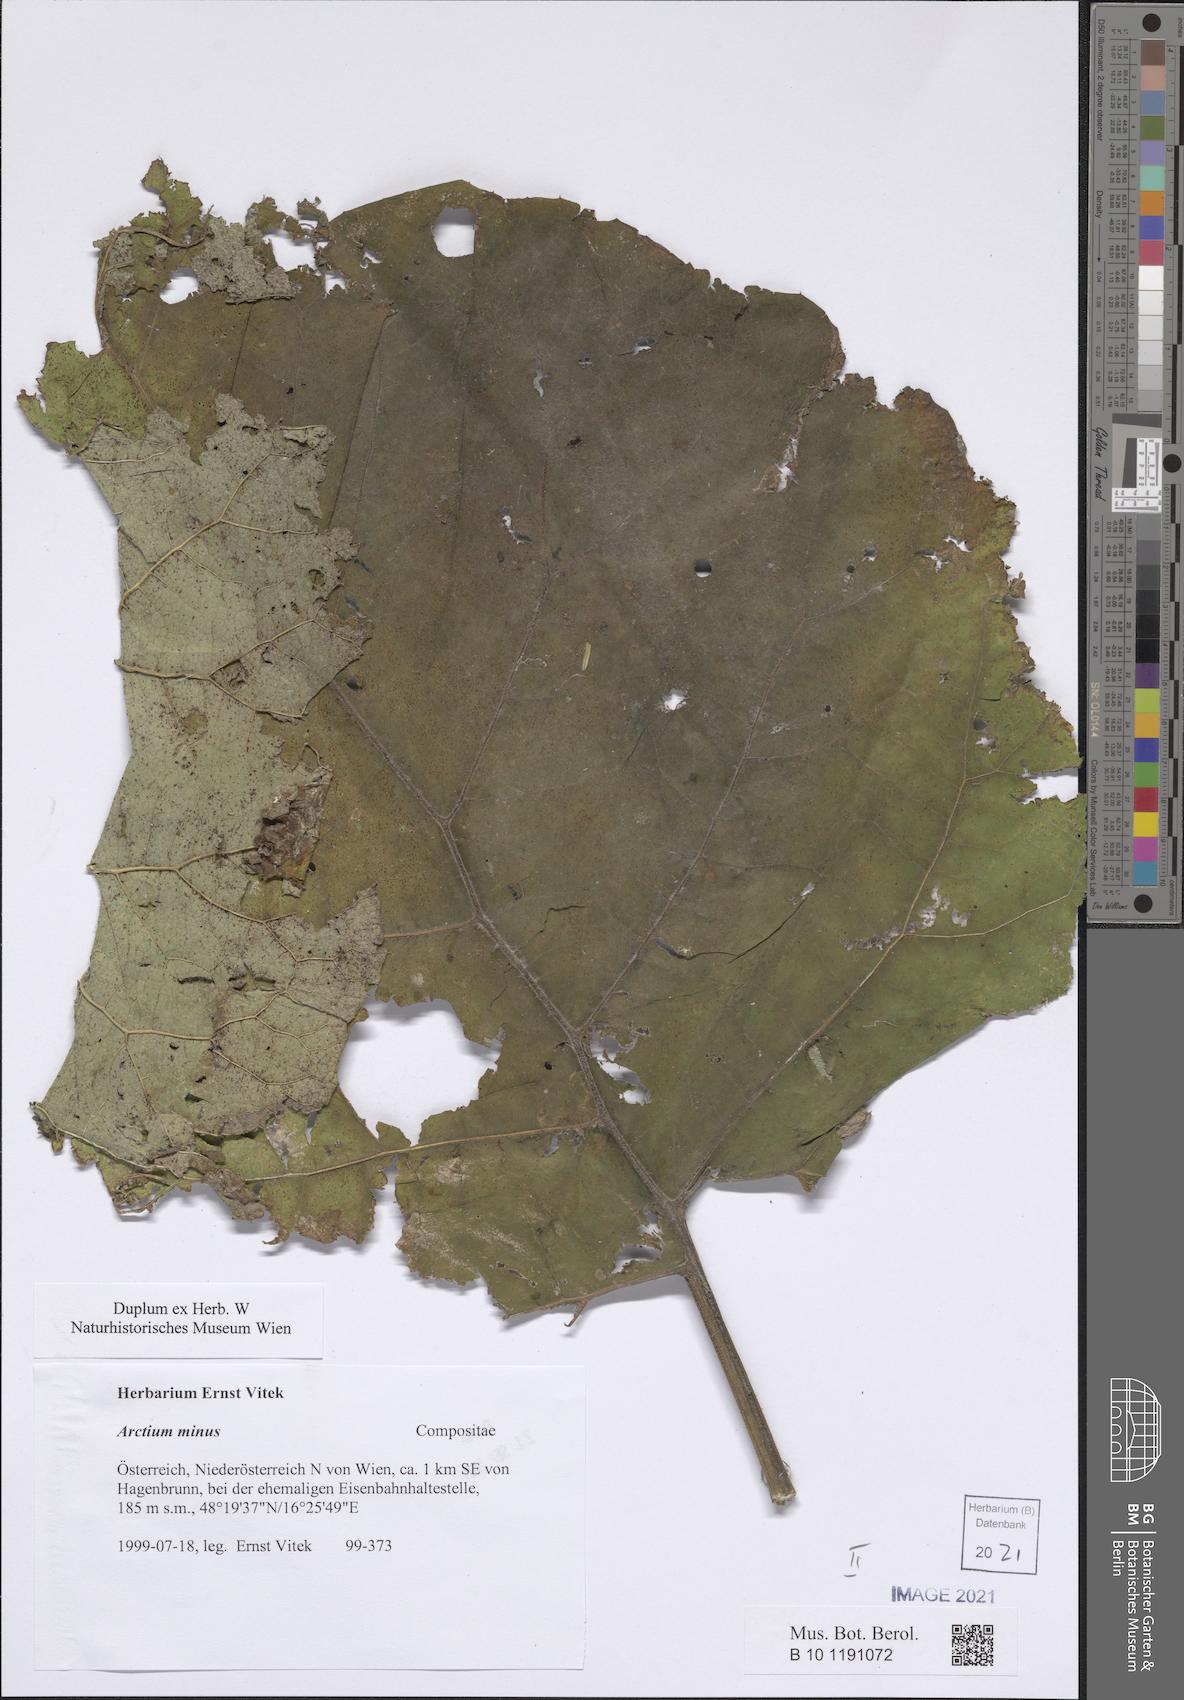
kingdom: Plantae
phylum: Tracheophyta
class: Magnoliopsida
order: Asterales
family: Asteraceae
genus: Arctium
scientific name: Arctium minus
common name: Lesser burdock
